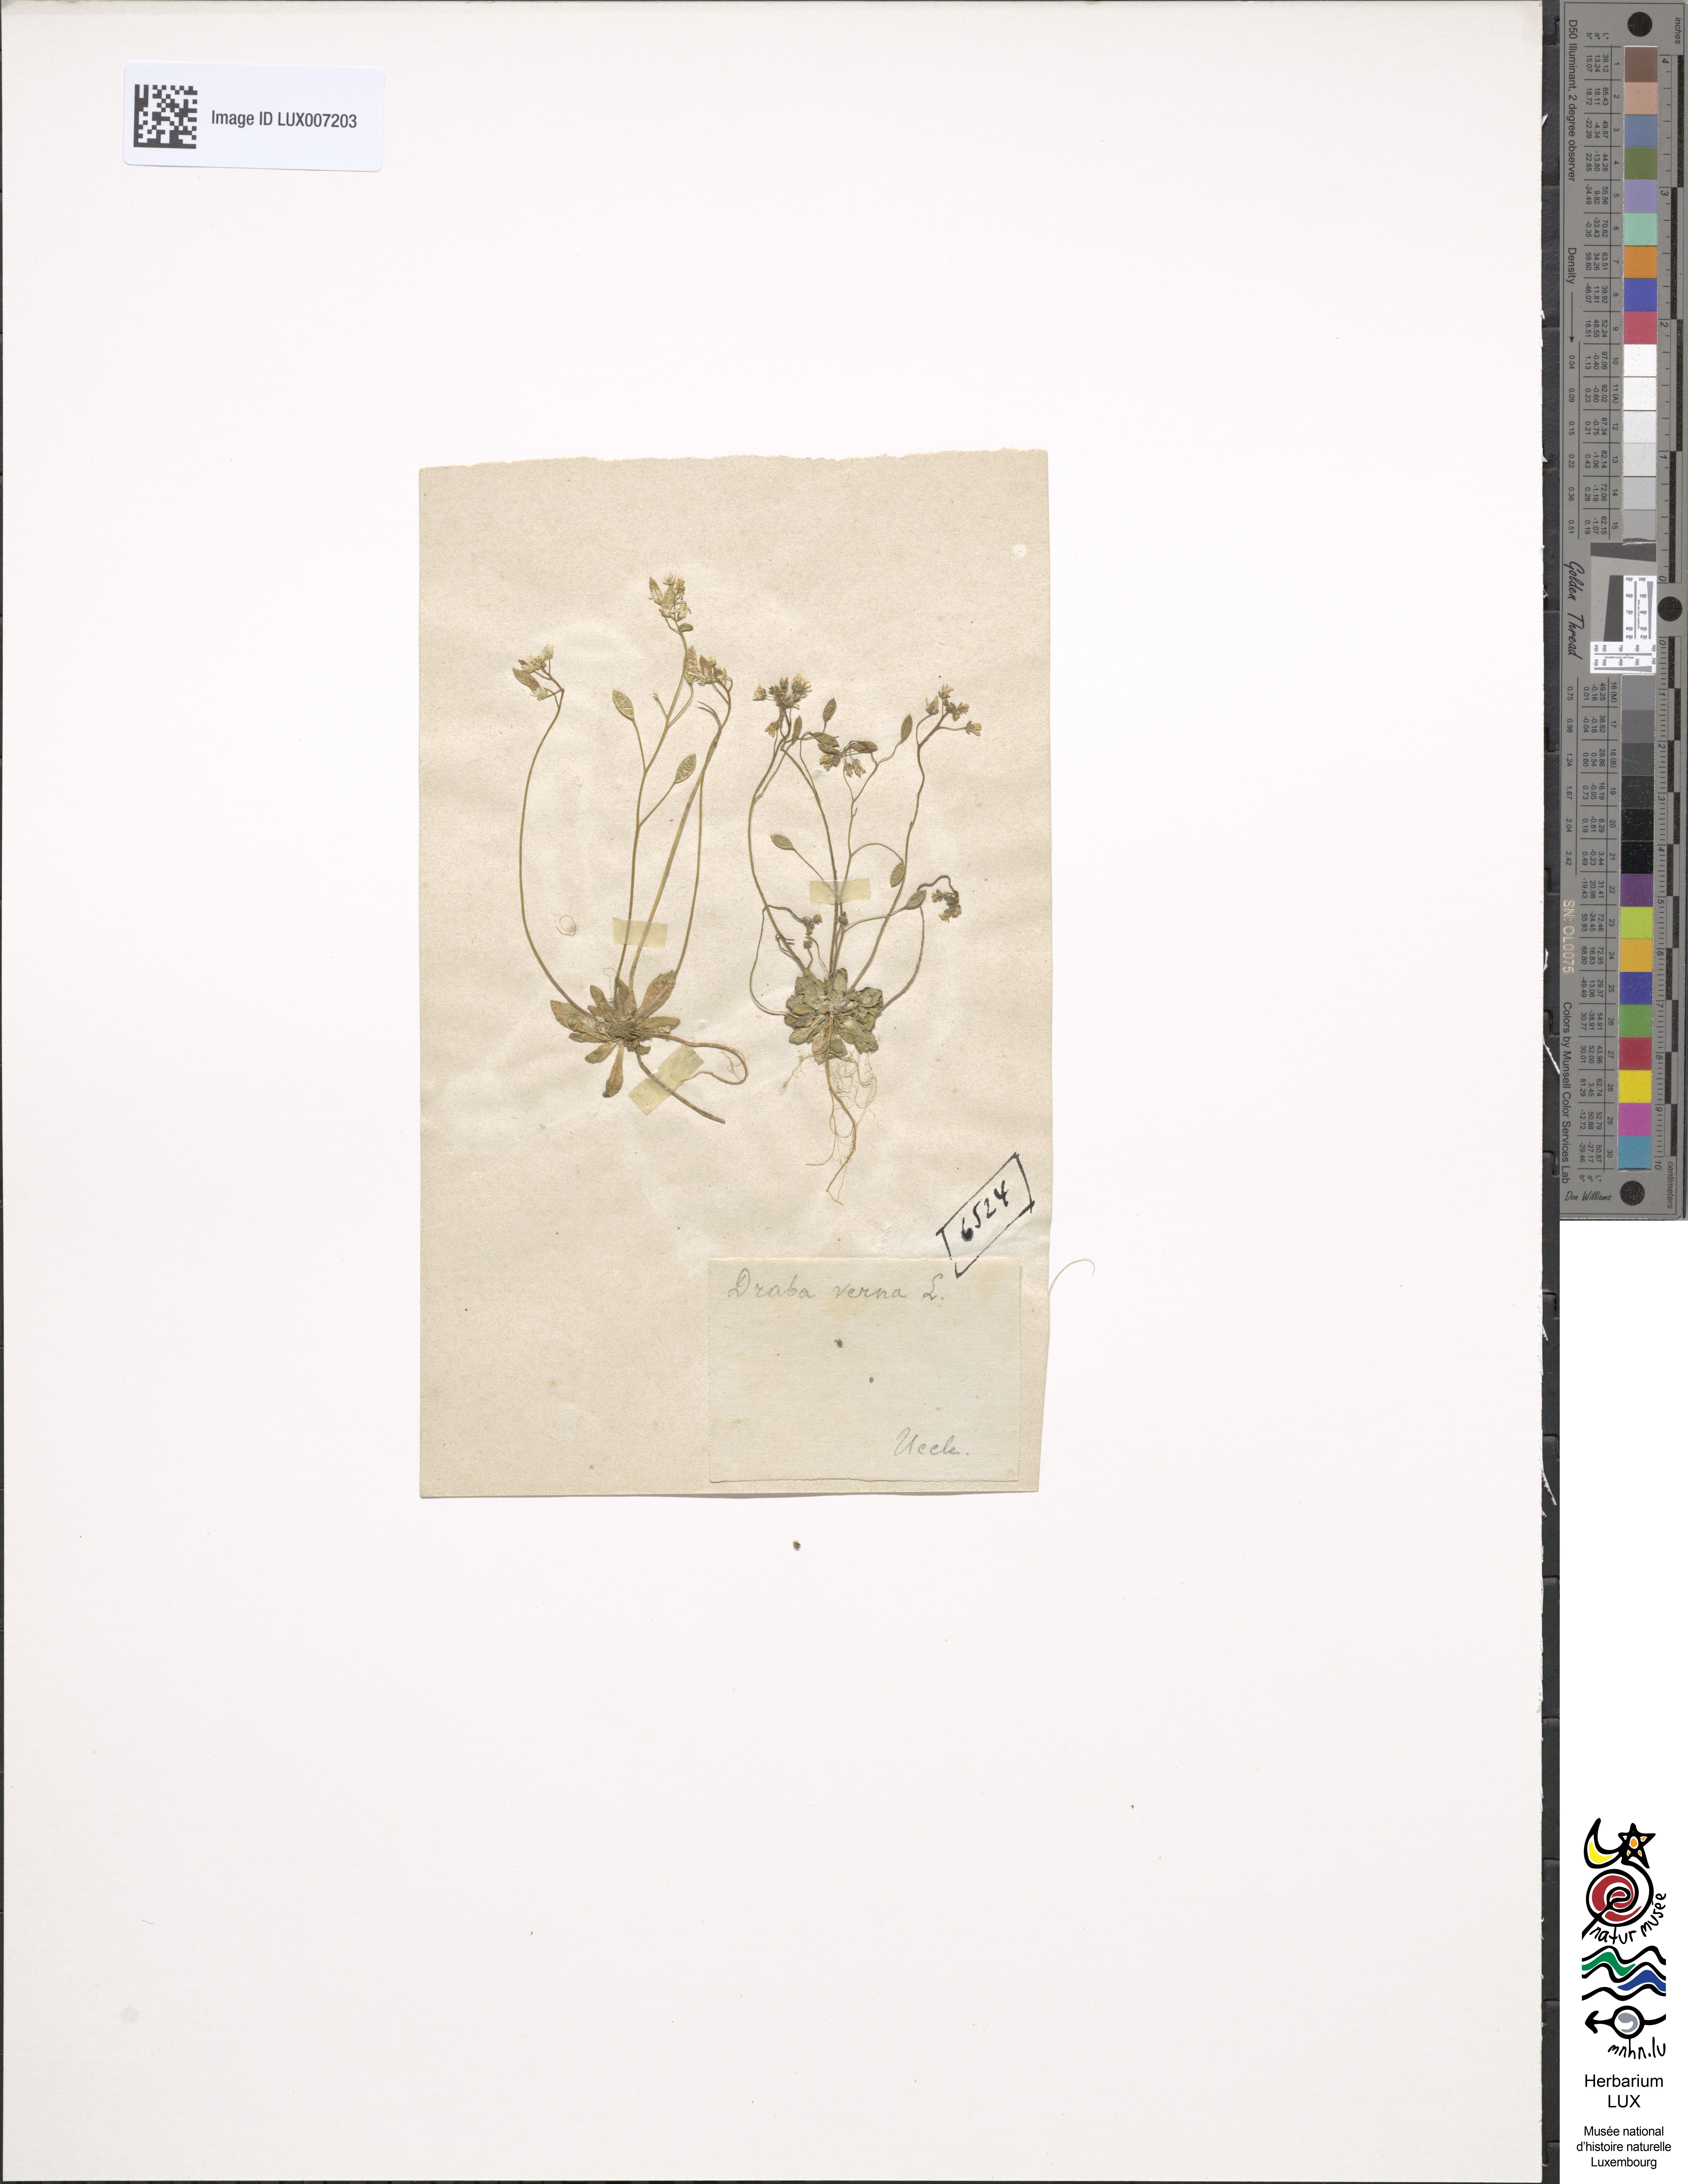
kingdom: Plantae
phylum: Tracheophyta
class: Magnoliopsida
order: Brassicales
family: Brassicaceae
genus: Draba
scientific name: Draba verna
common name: Spring draba
